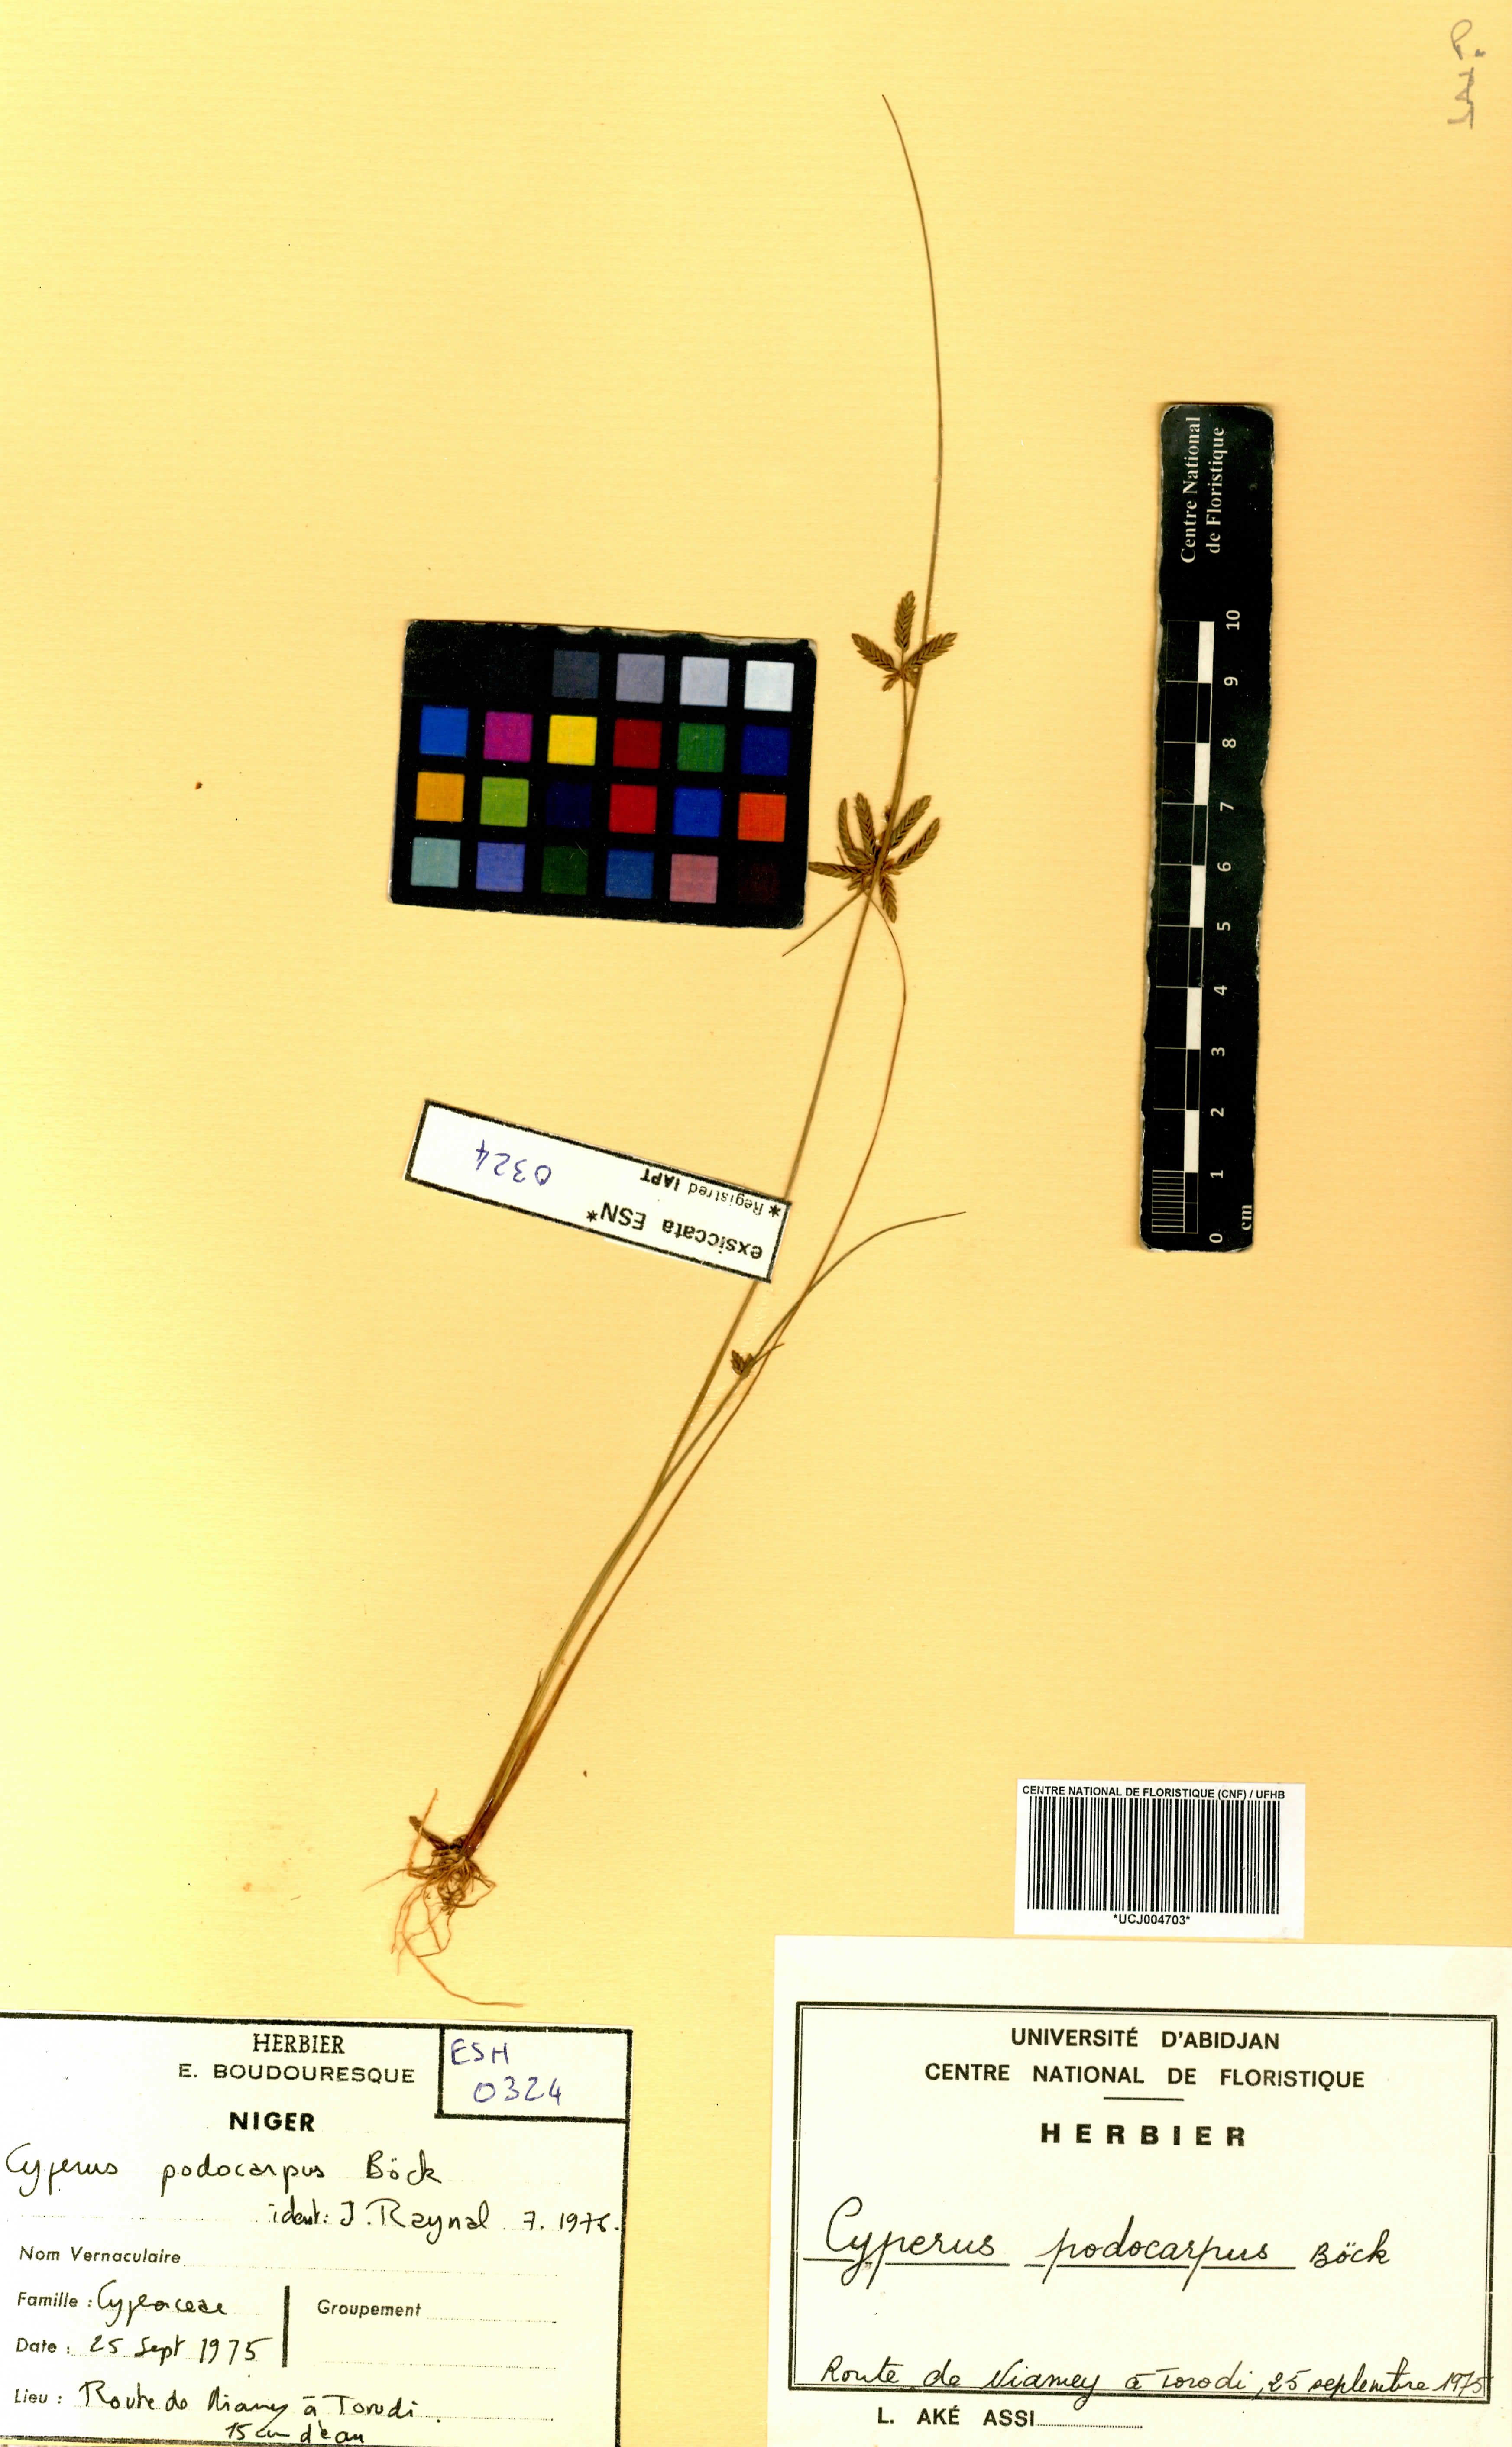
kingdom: Plantae
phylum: Tracheophyta
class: Liliopsida
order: Poales
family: Cyperaceae
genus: Cyperus
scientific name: Cyperus podocarpus
